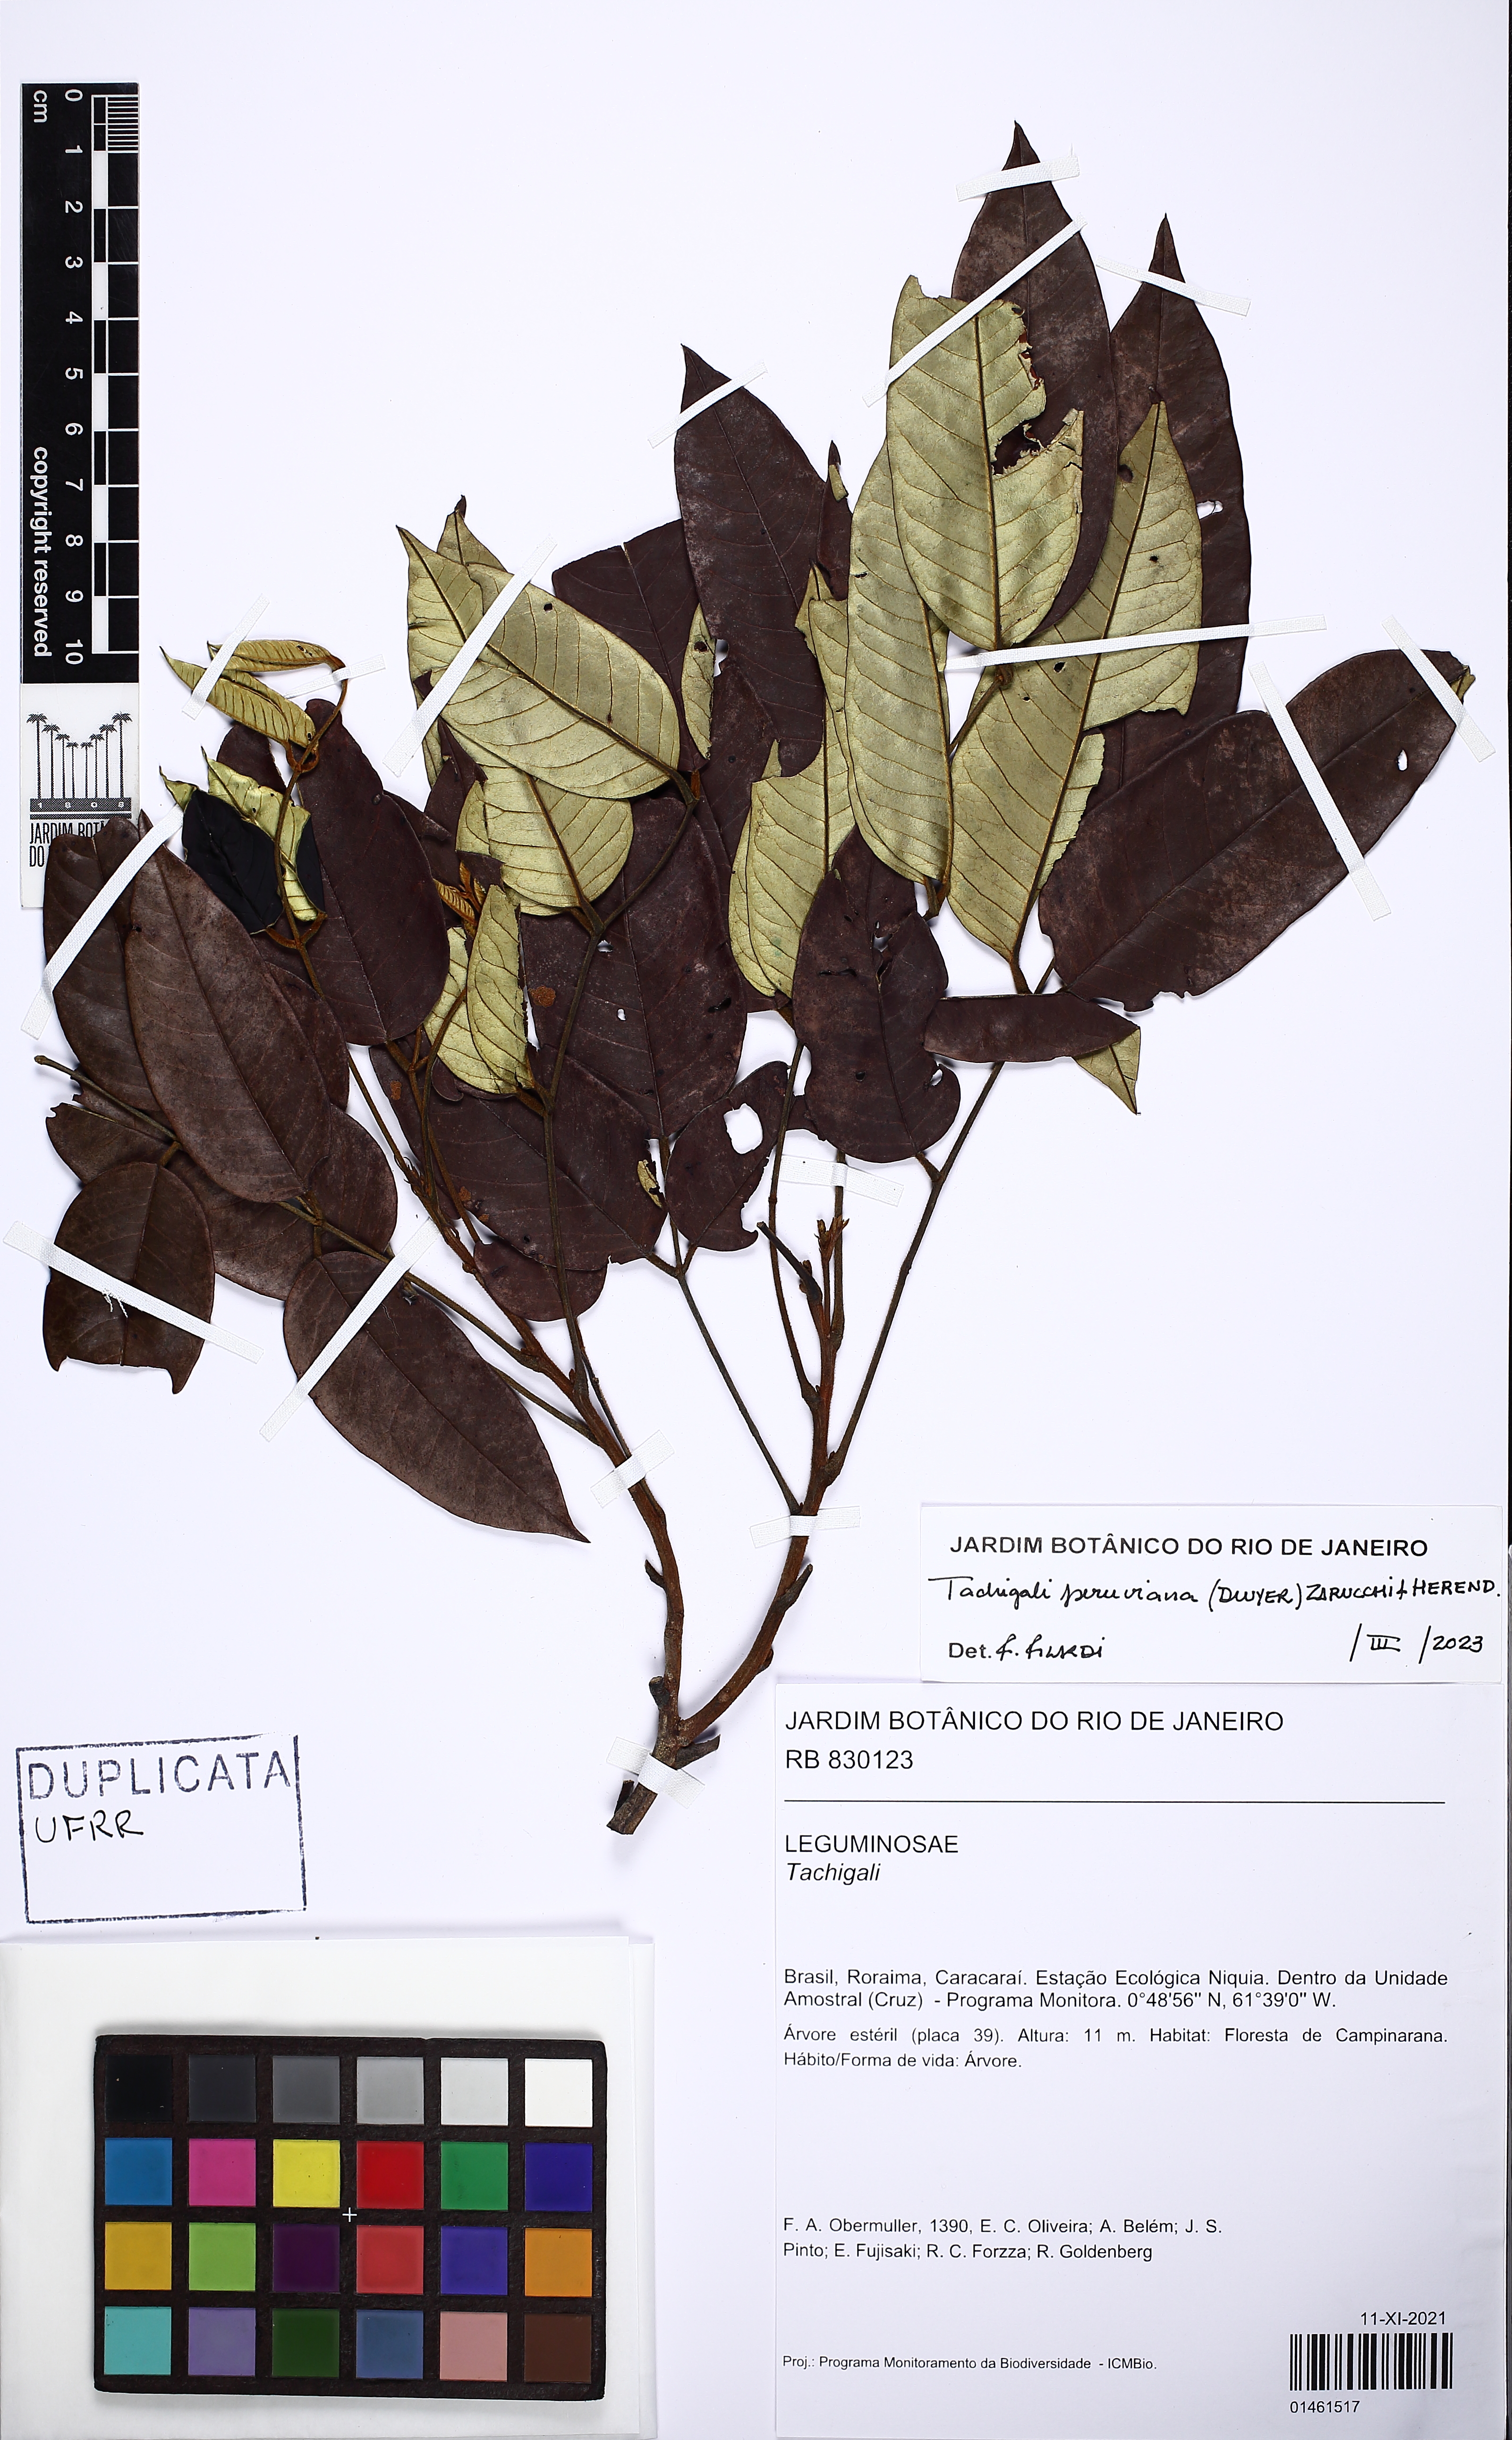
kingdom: Plantae
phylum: Tracheophyta
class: Magnoliopsida
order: Fabales
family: Fabaceae
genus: Tachigali
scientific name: Tachigali peruviana
